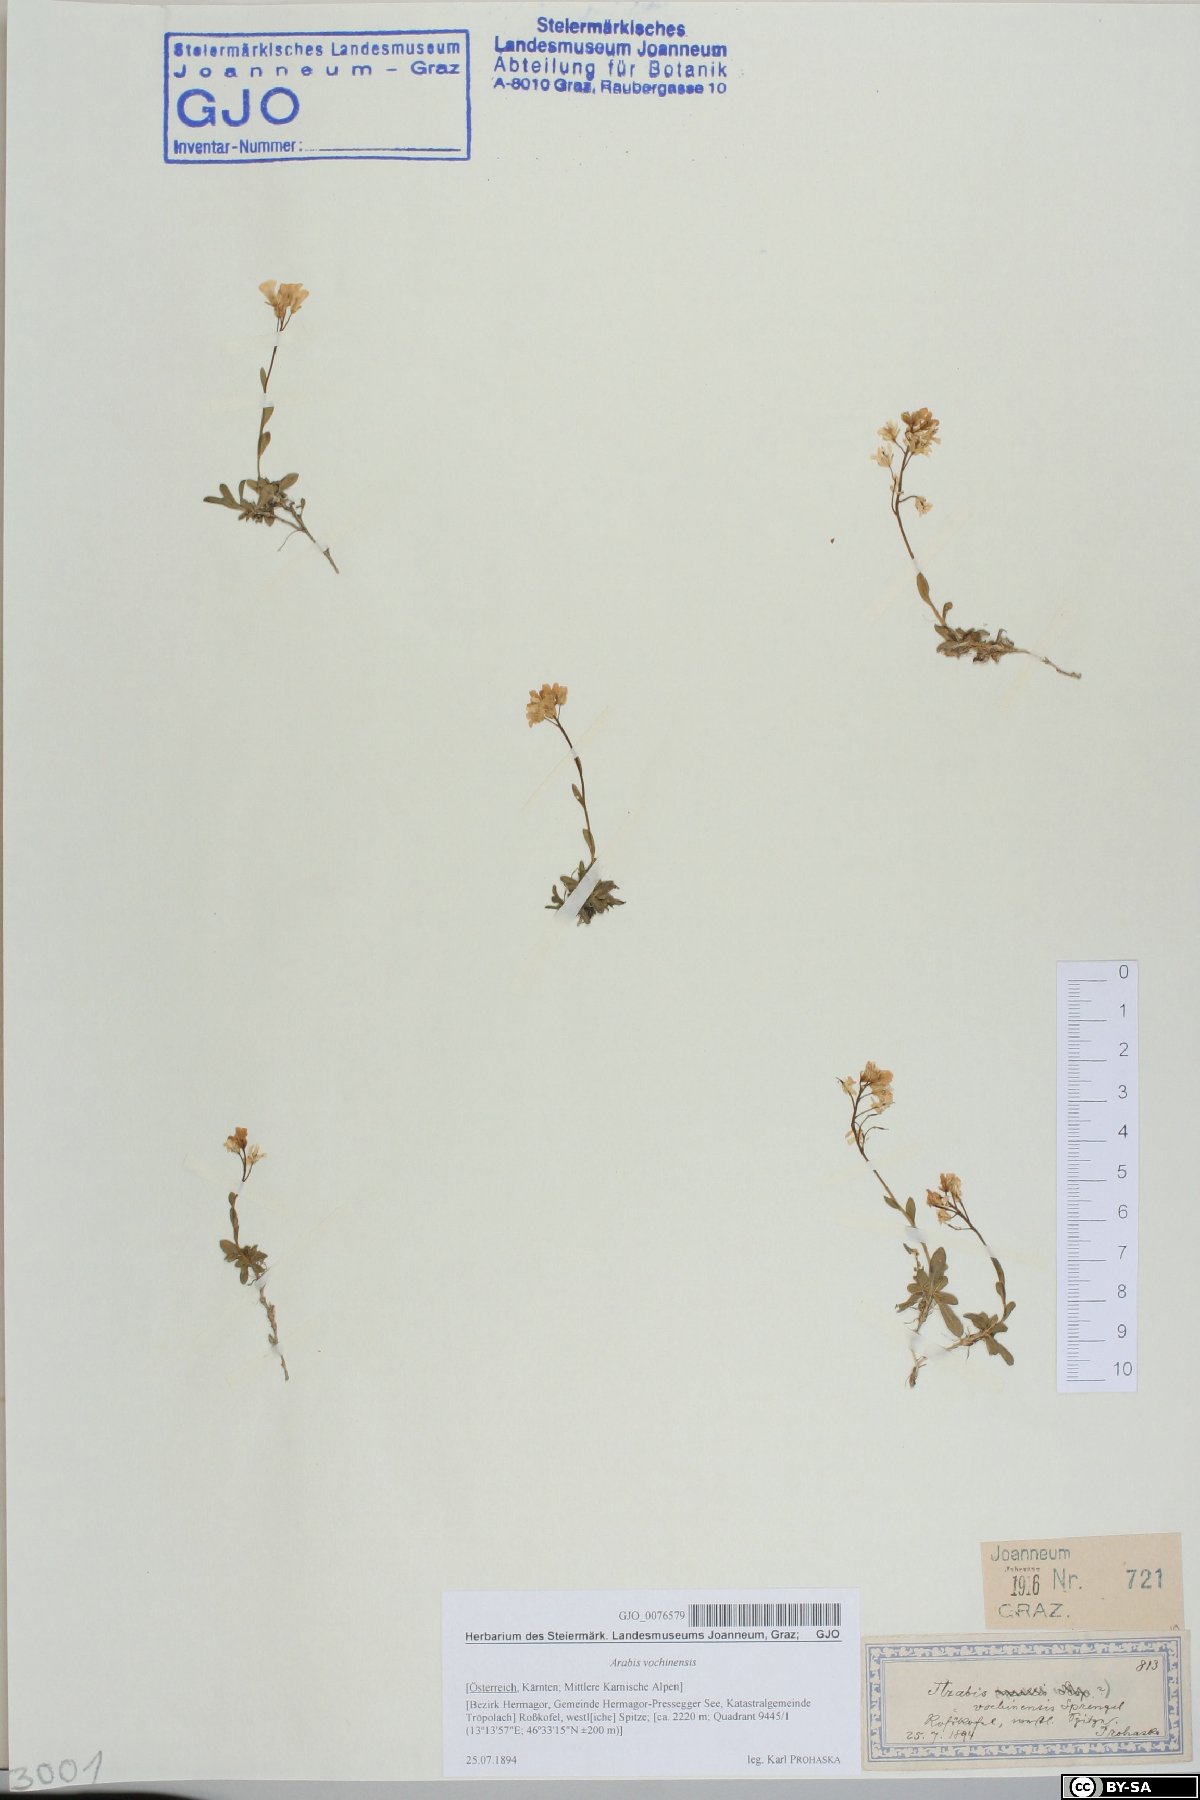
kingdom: Plantae
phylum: Tracheophyta
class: Magnoliopsida
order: Brassicales
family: Brassicaceae
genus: Arabis
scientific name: Arabis vochinensis
